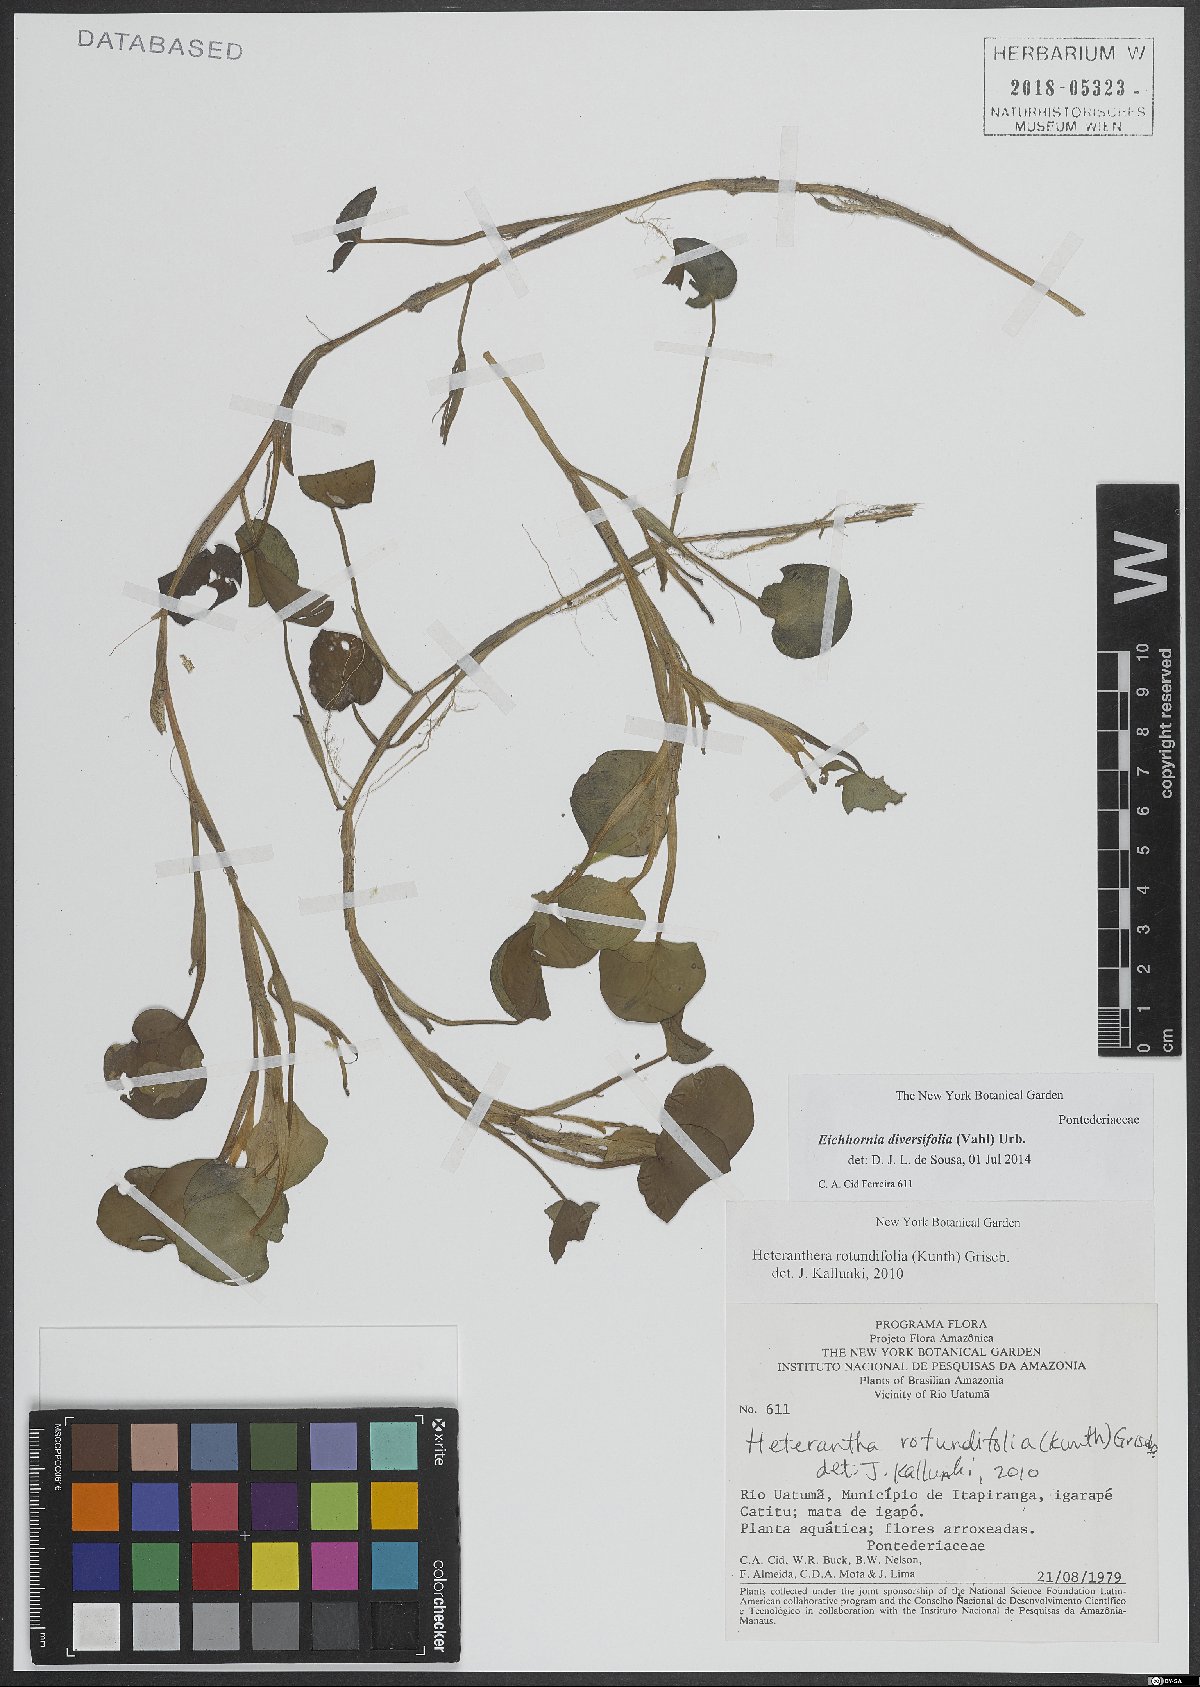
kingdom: Plantae
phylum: Tracheophyta
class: Liliopsida
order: Commelinales
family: Pontederiaceae
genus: Pontederia
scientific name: Pontederia diversifolia
